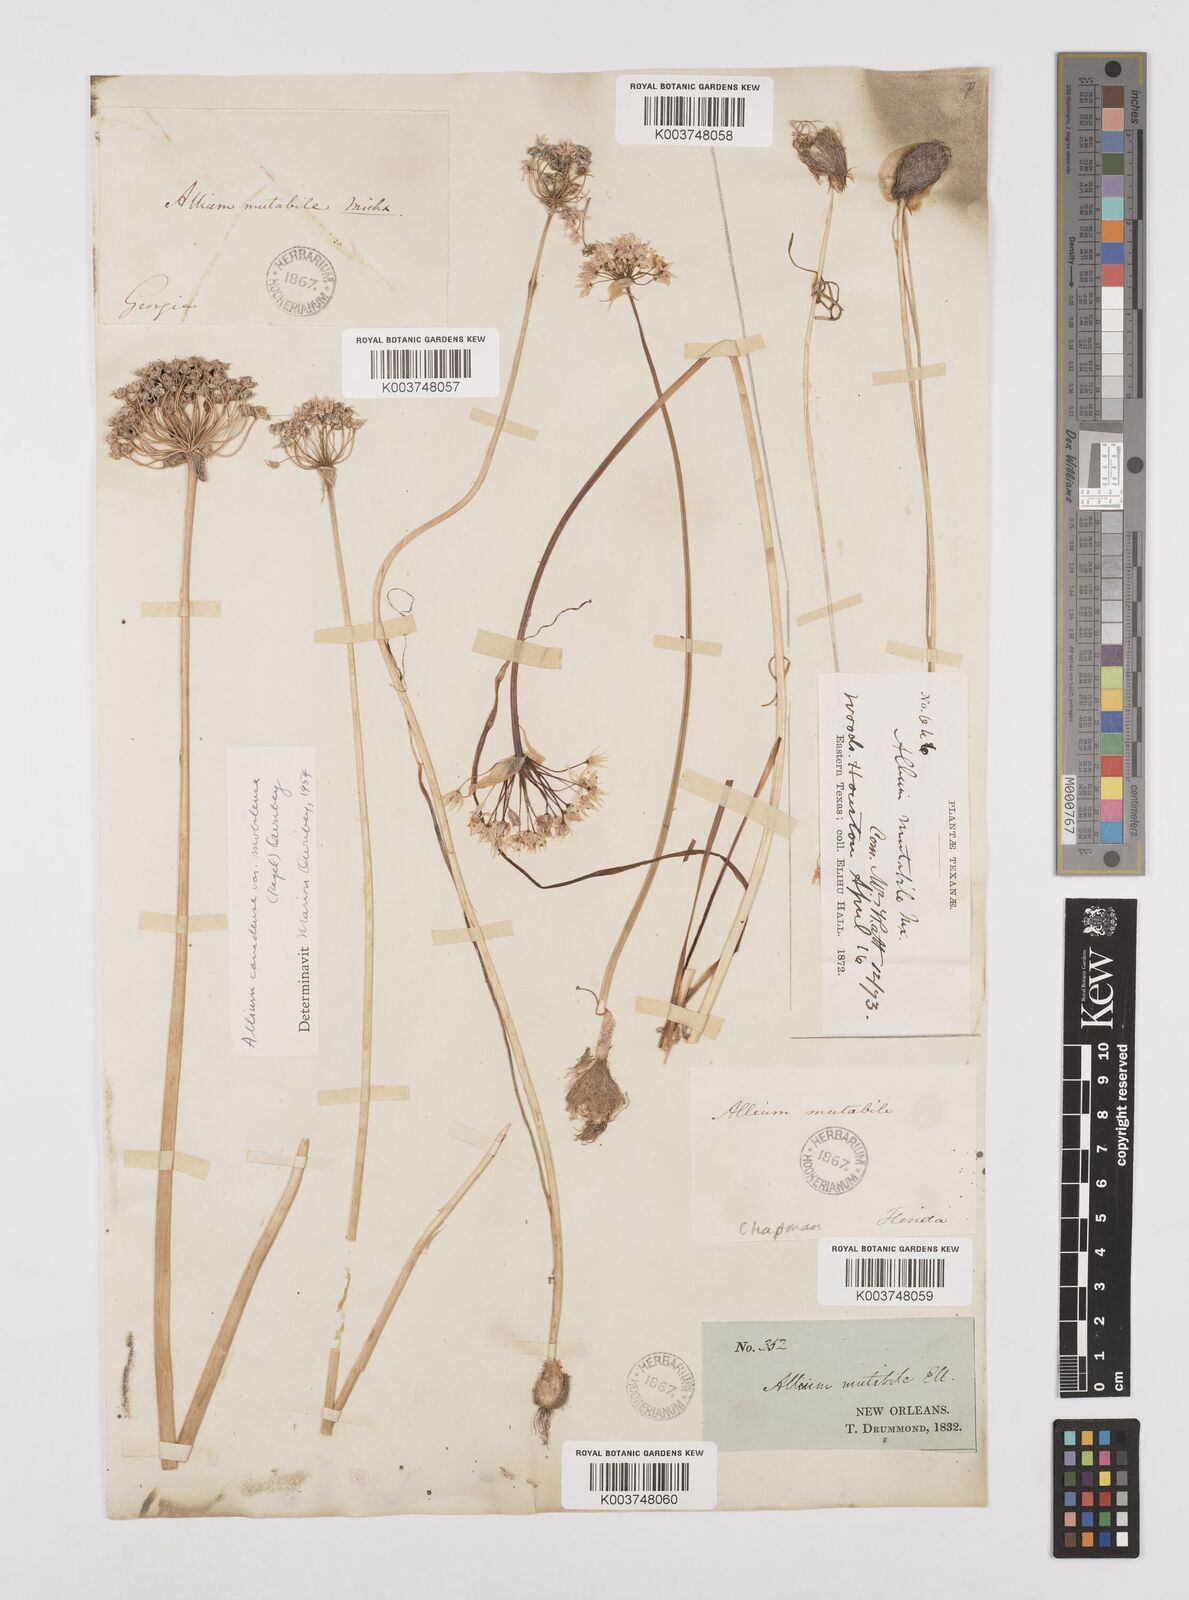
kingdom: Plantae
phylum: Tracheophyta
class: Liliopsida
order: Asparagales
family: Amaryllidaceae
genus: Allium
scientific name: Allium canadense
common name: Meadow garlic
